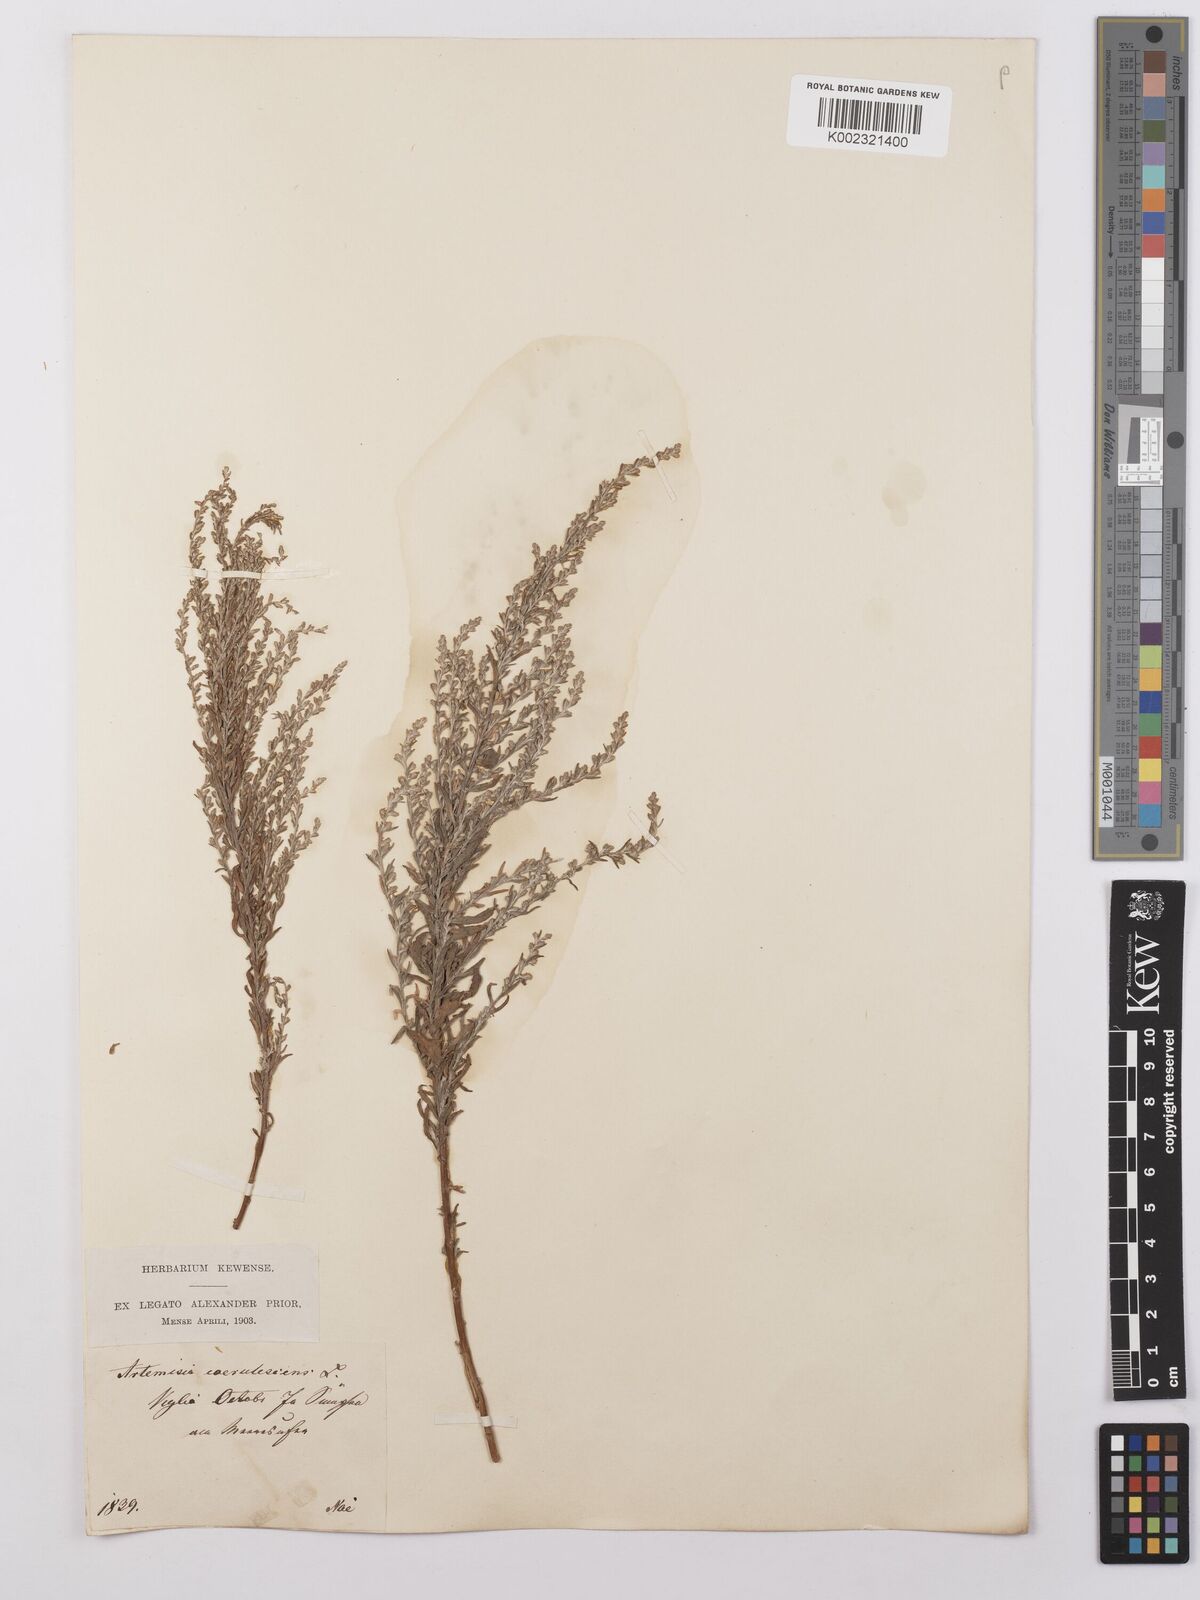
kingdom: Plantae
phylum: Tracheophyta
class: Magnoliopsida
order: Asterales
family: Asteraceae
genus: Artemisia
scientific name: Artemisia caerulescens
